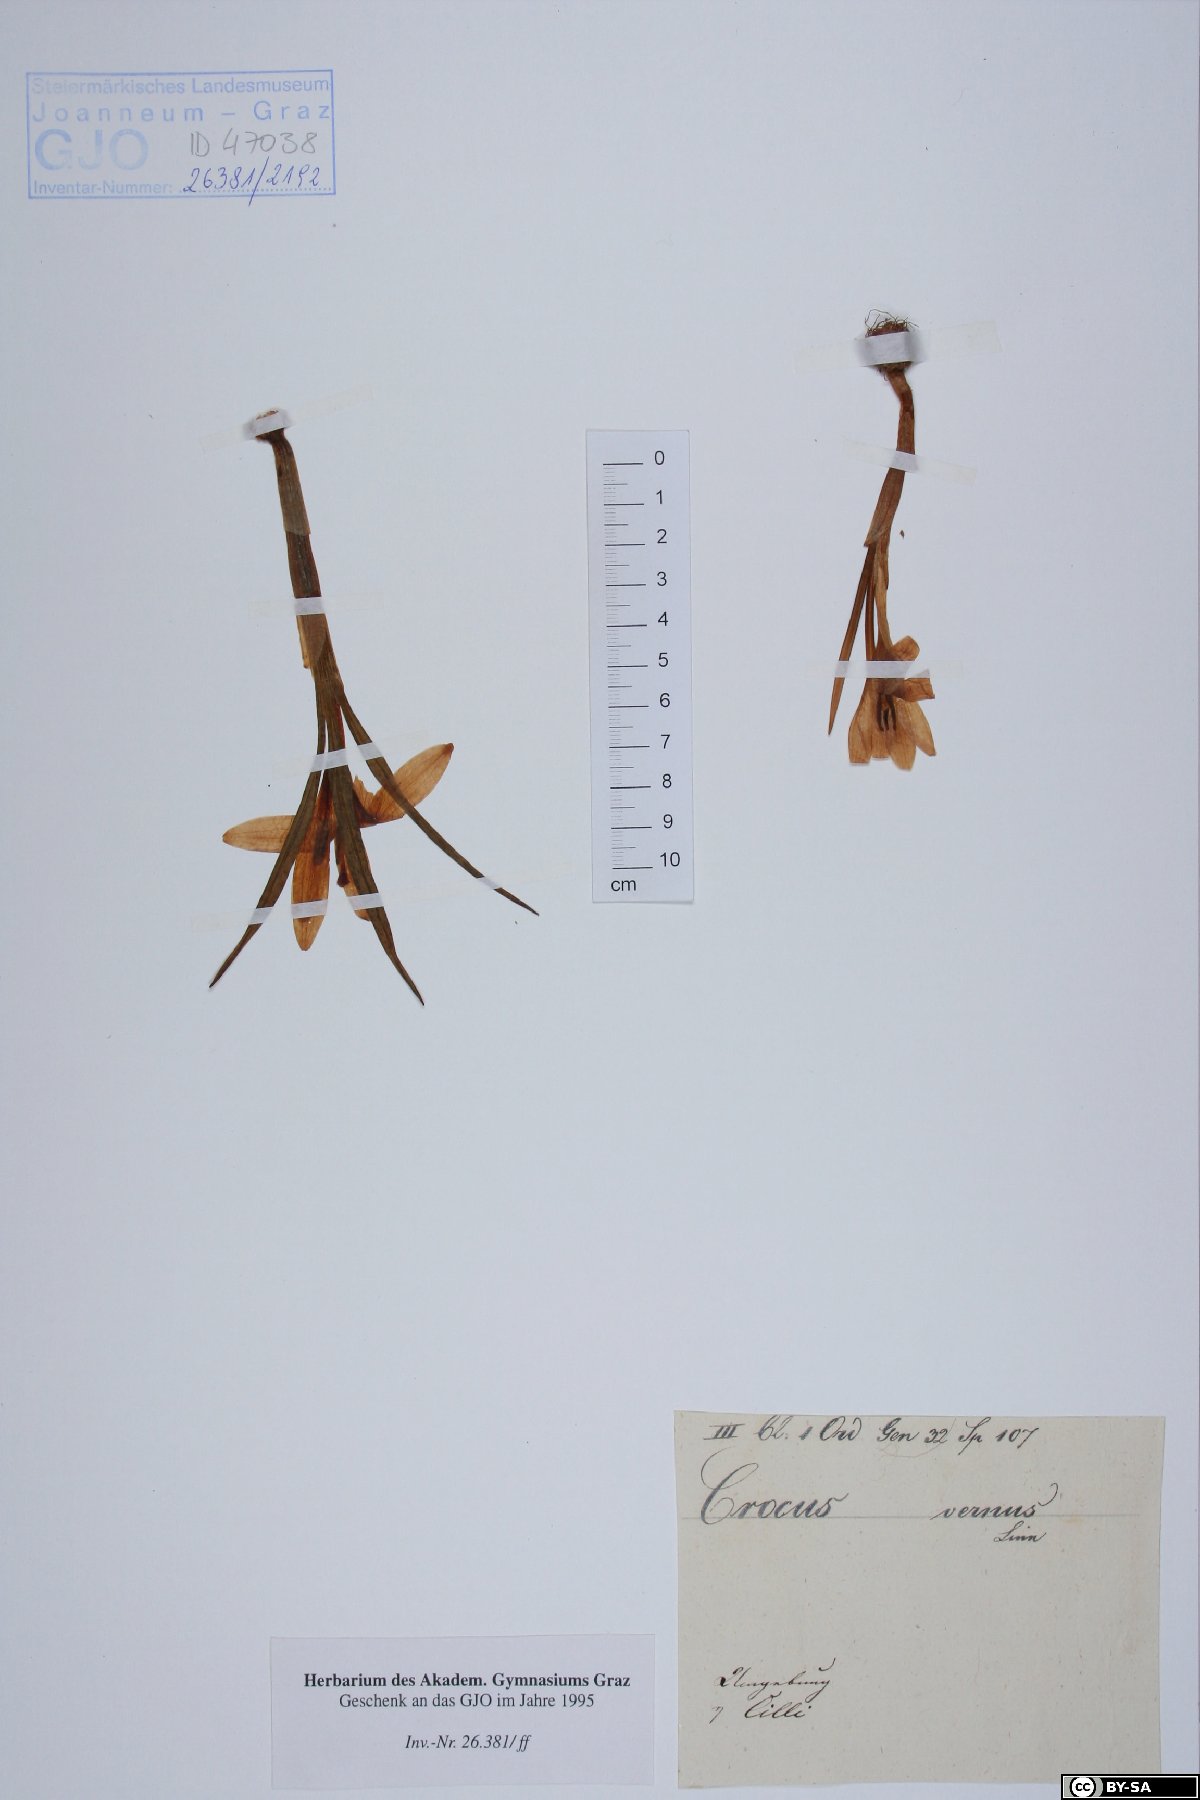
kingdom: Plantae
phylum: Tracheophyta
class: Liliopsida
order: Asparagales
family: Iridaceae
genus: Crocus
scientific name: Crocus vernus
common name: Spring crocus
